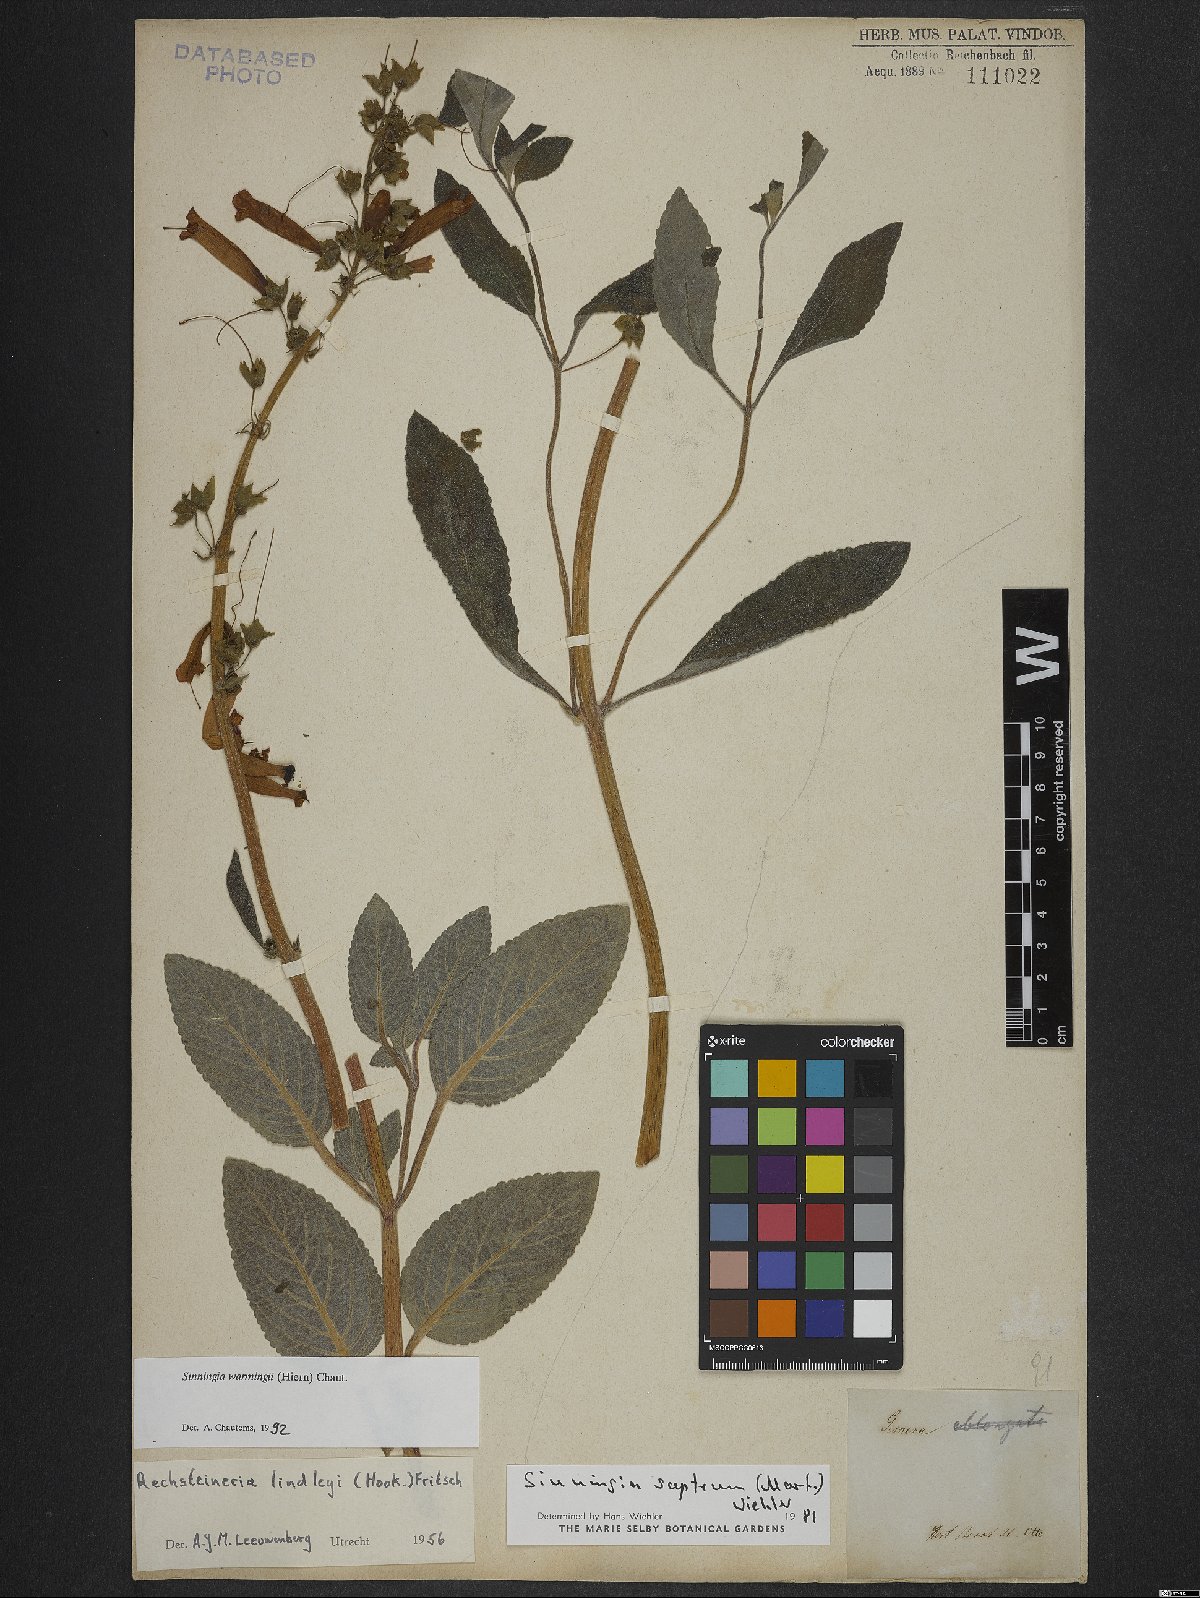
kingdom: Plantae
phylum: Tracheophyta
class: Magnoliopsida
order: Lamiales
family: Gesneriaceae
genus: Sinningia
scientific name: Sinningia warmingii
